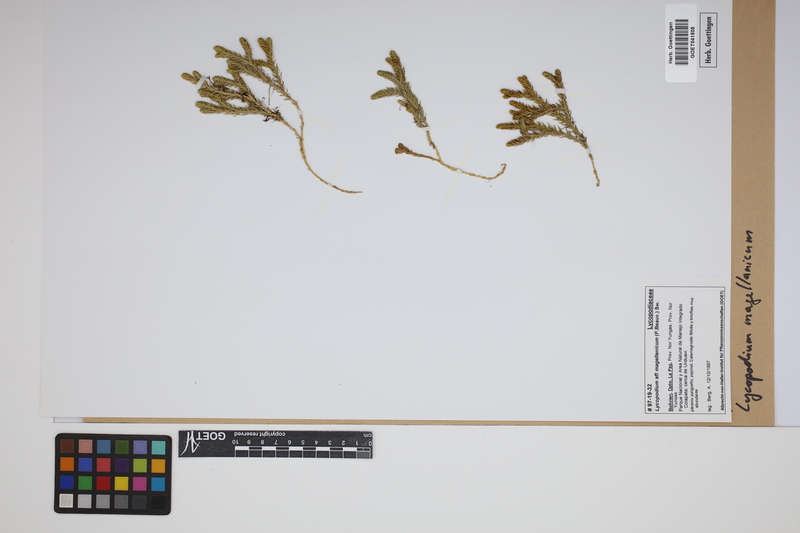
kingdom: Plantae
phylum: Tracheophyta
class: Lycopodiopsida
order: Lycopodiales
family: Lycopodiaceae
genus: Austrolycopodium
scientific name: Austrolycopodium magellanicum
